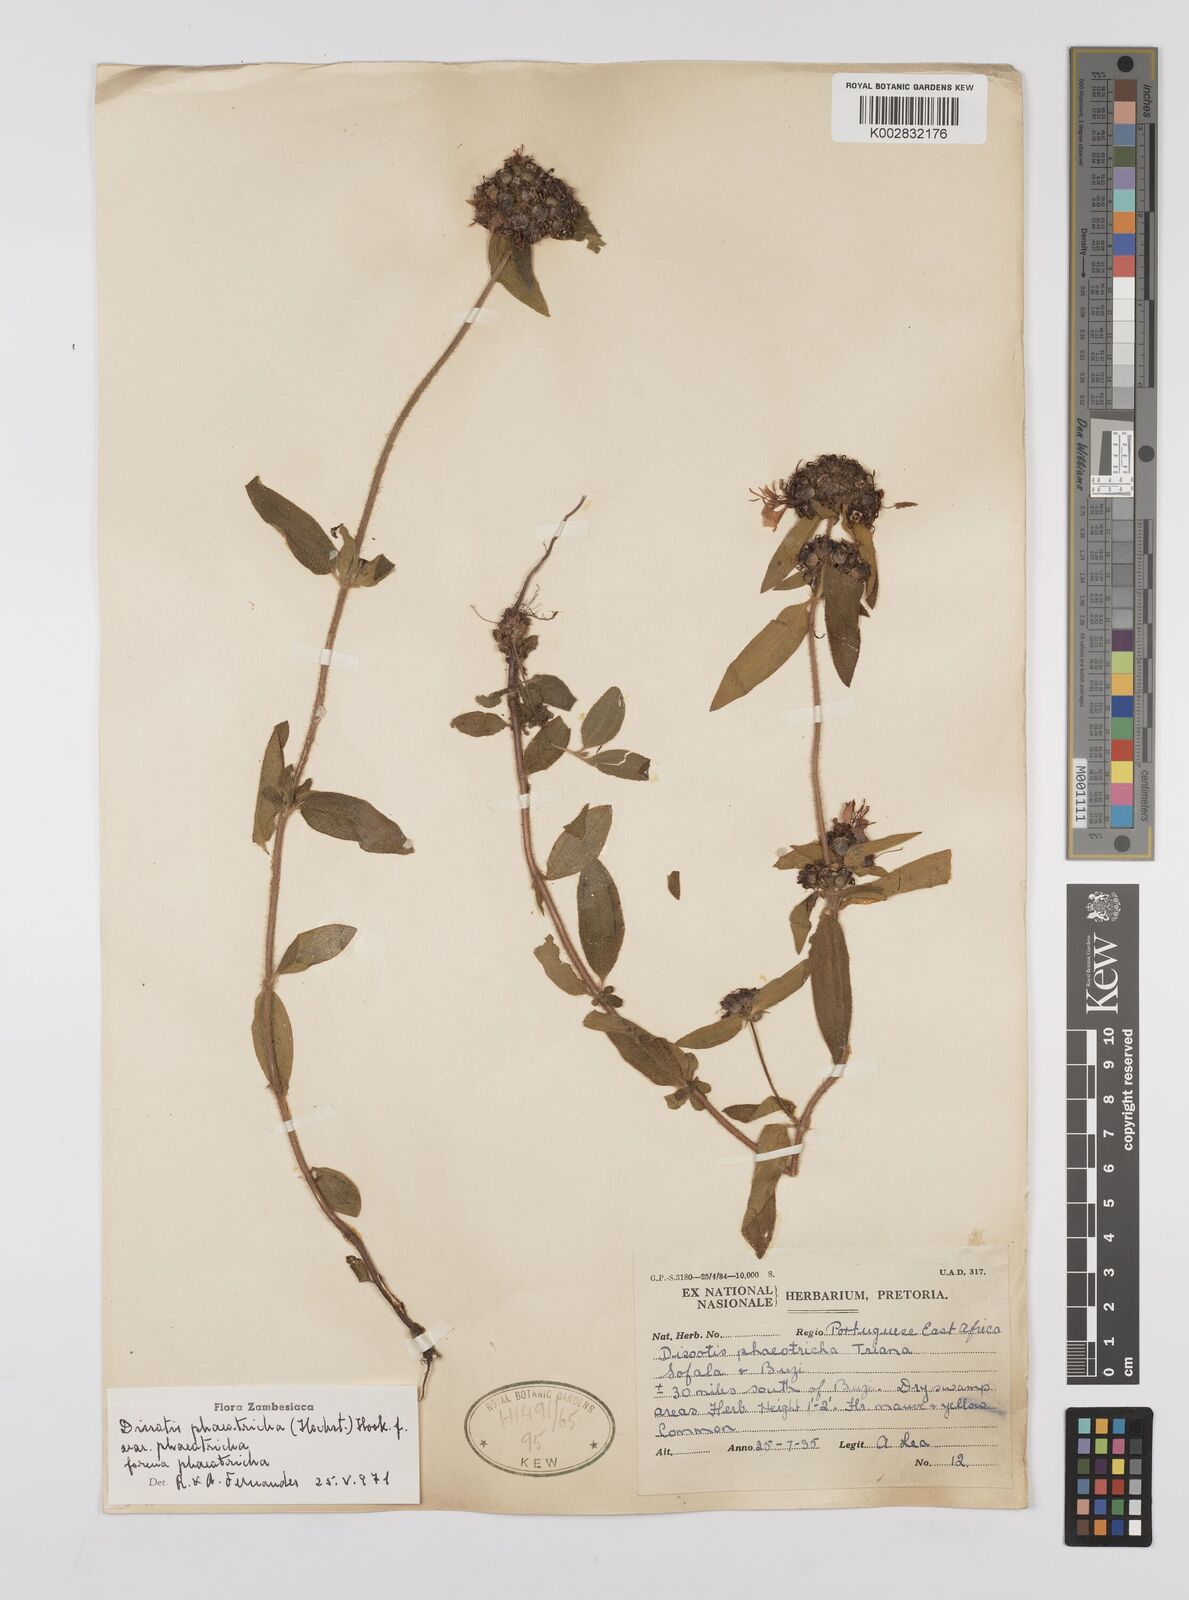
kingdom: Plantae
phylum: Tracheophyta
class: Magnoliopsida
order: Myrtales
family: Melastomataceae
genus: Antherotoma
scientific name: Antherotoma phaeotricha
